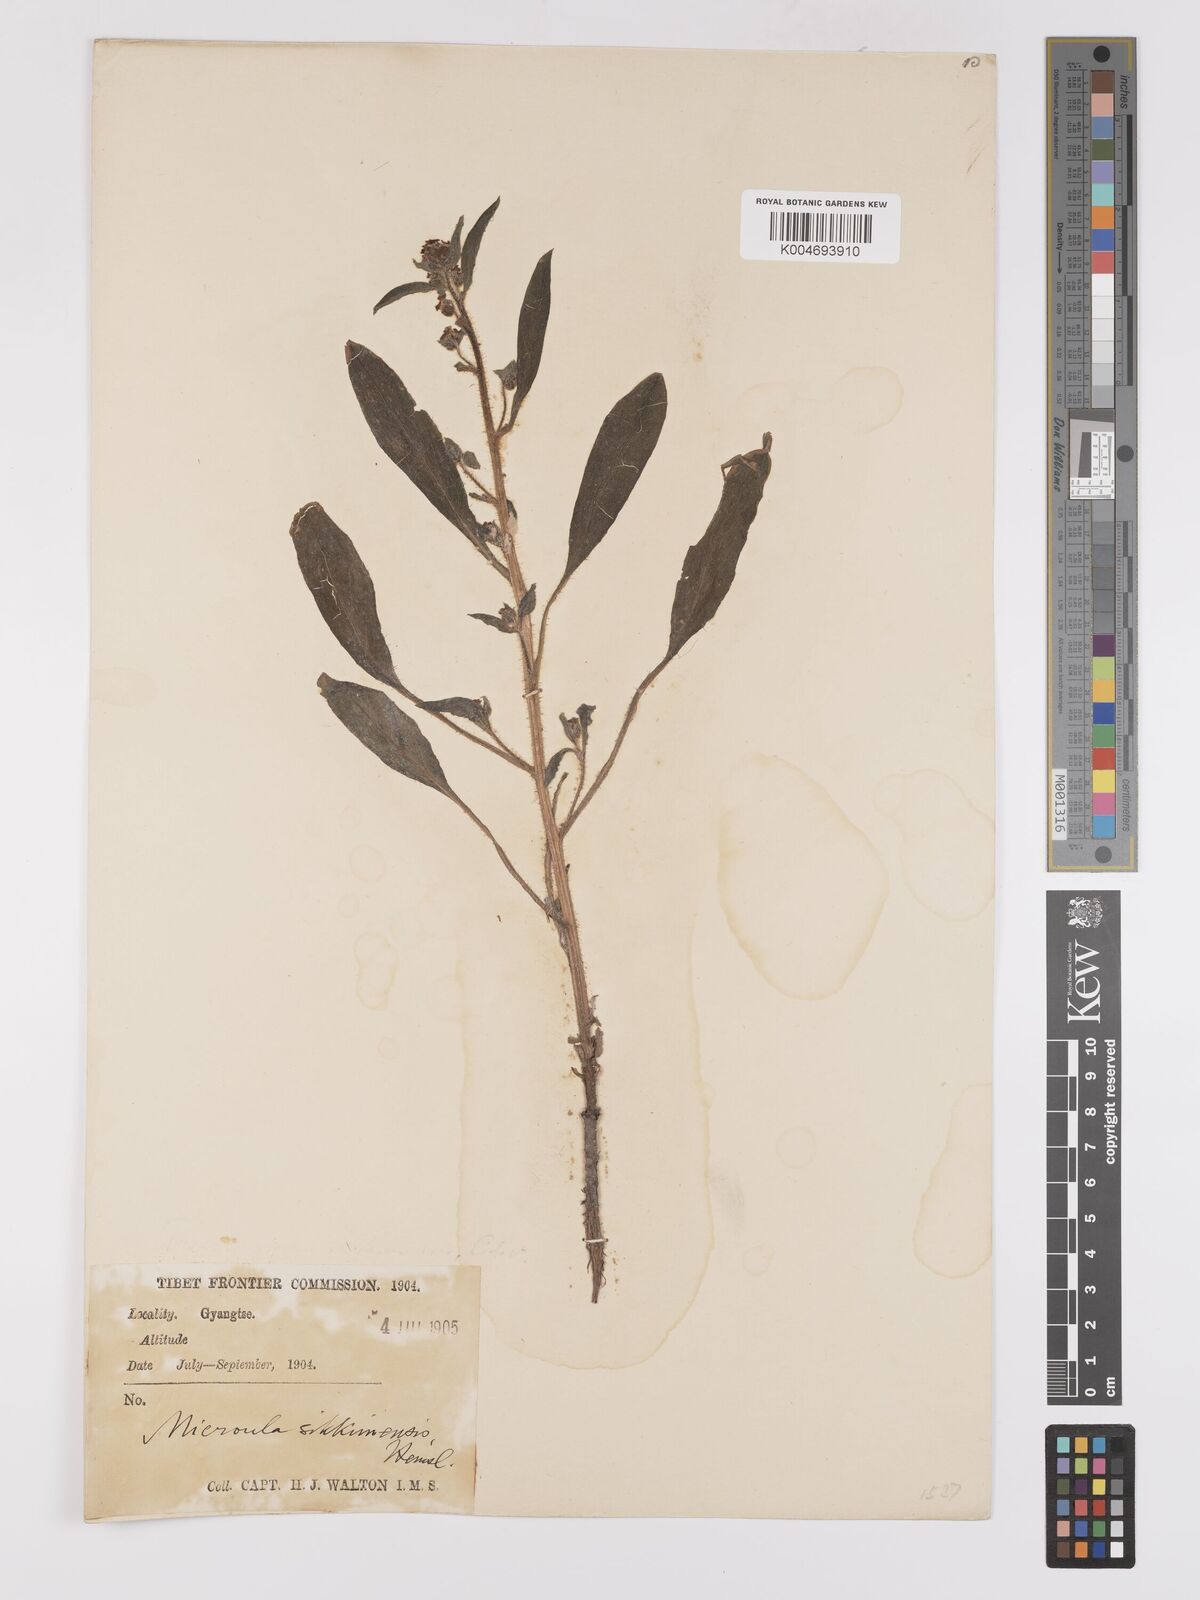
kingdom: Plantae
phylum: Tracheophyta
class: Magnoliopsida
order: Boraginales
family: Boraginaceae
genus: Microula
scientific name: Microula sikkimensis
